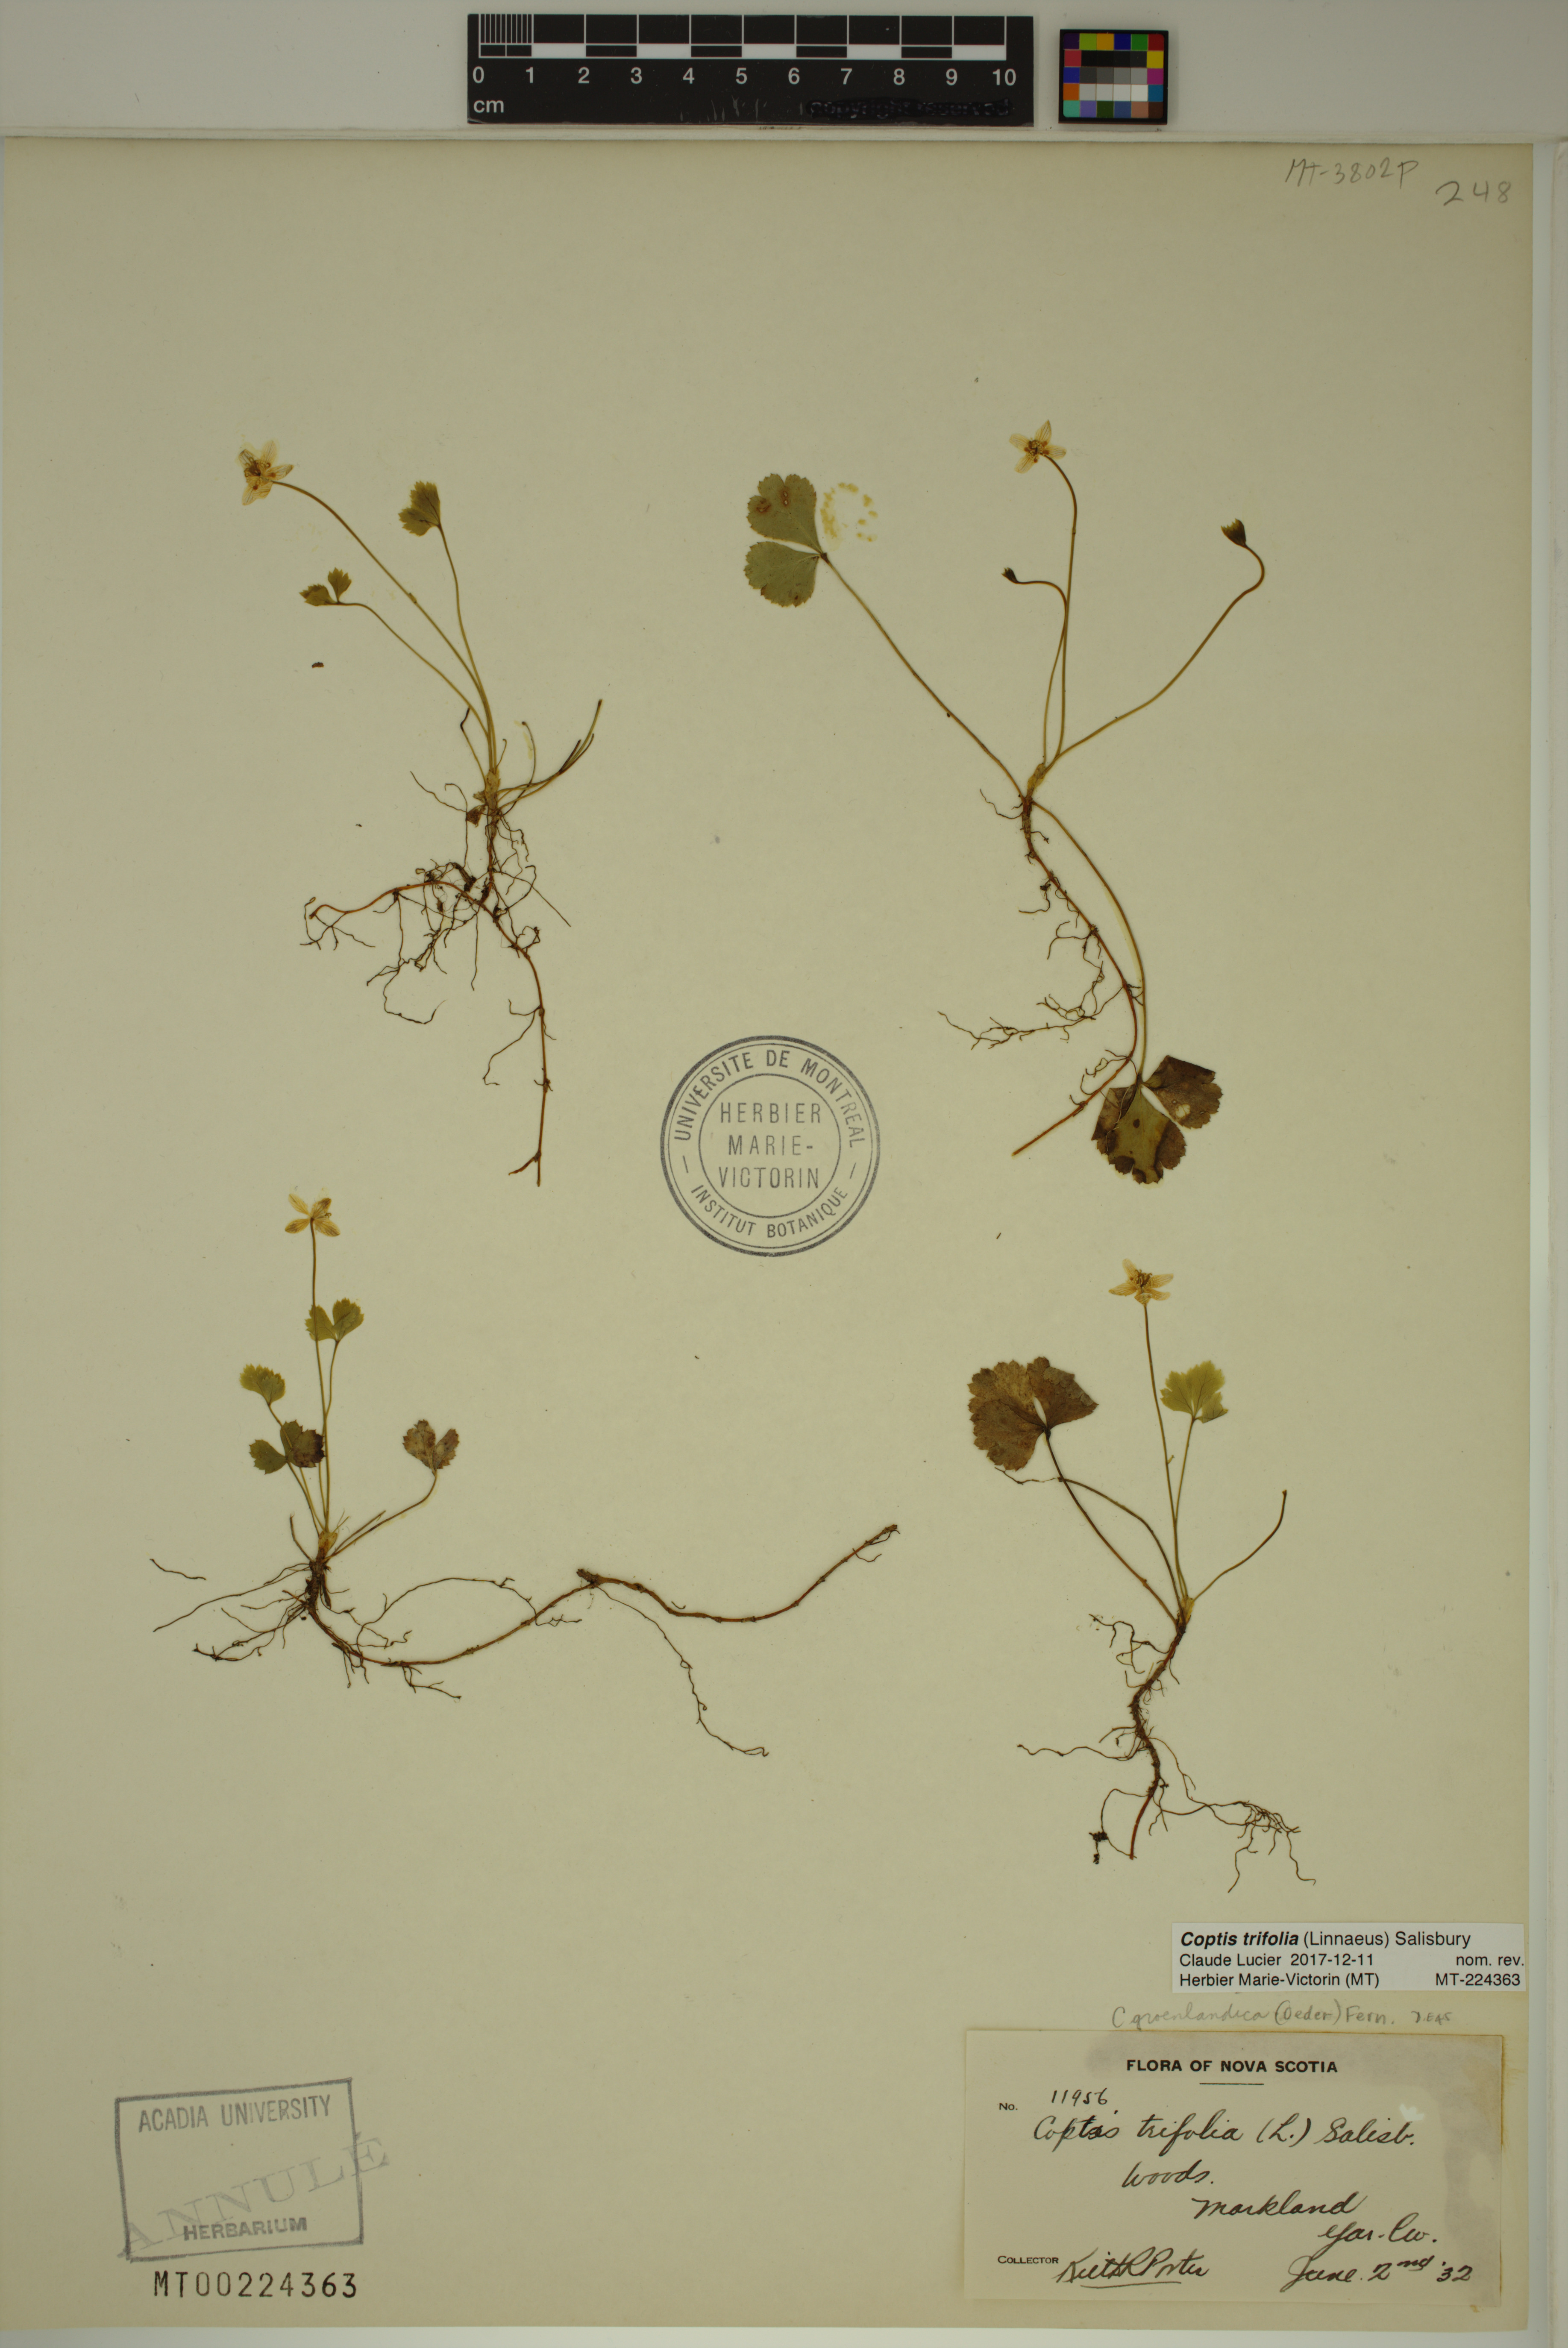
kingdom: Plantae
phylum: Tracheophyta
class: Magnoliopsida
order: Ranunculales
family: Ranunculaceae
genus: Coptis
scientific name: Coptis trifolia
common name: Canker-root
